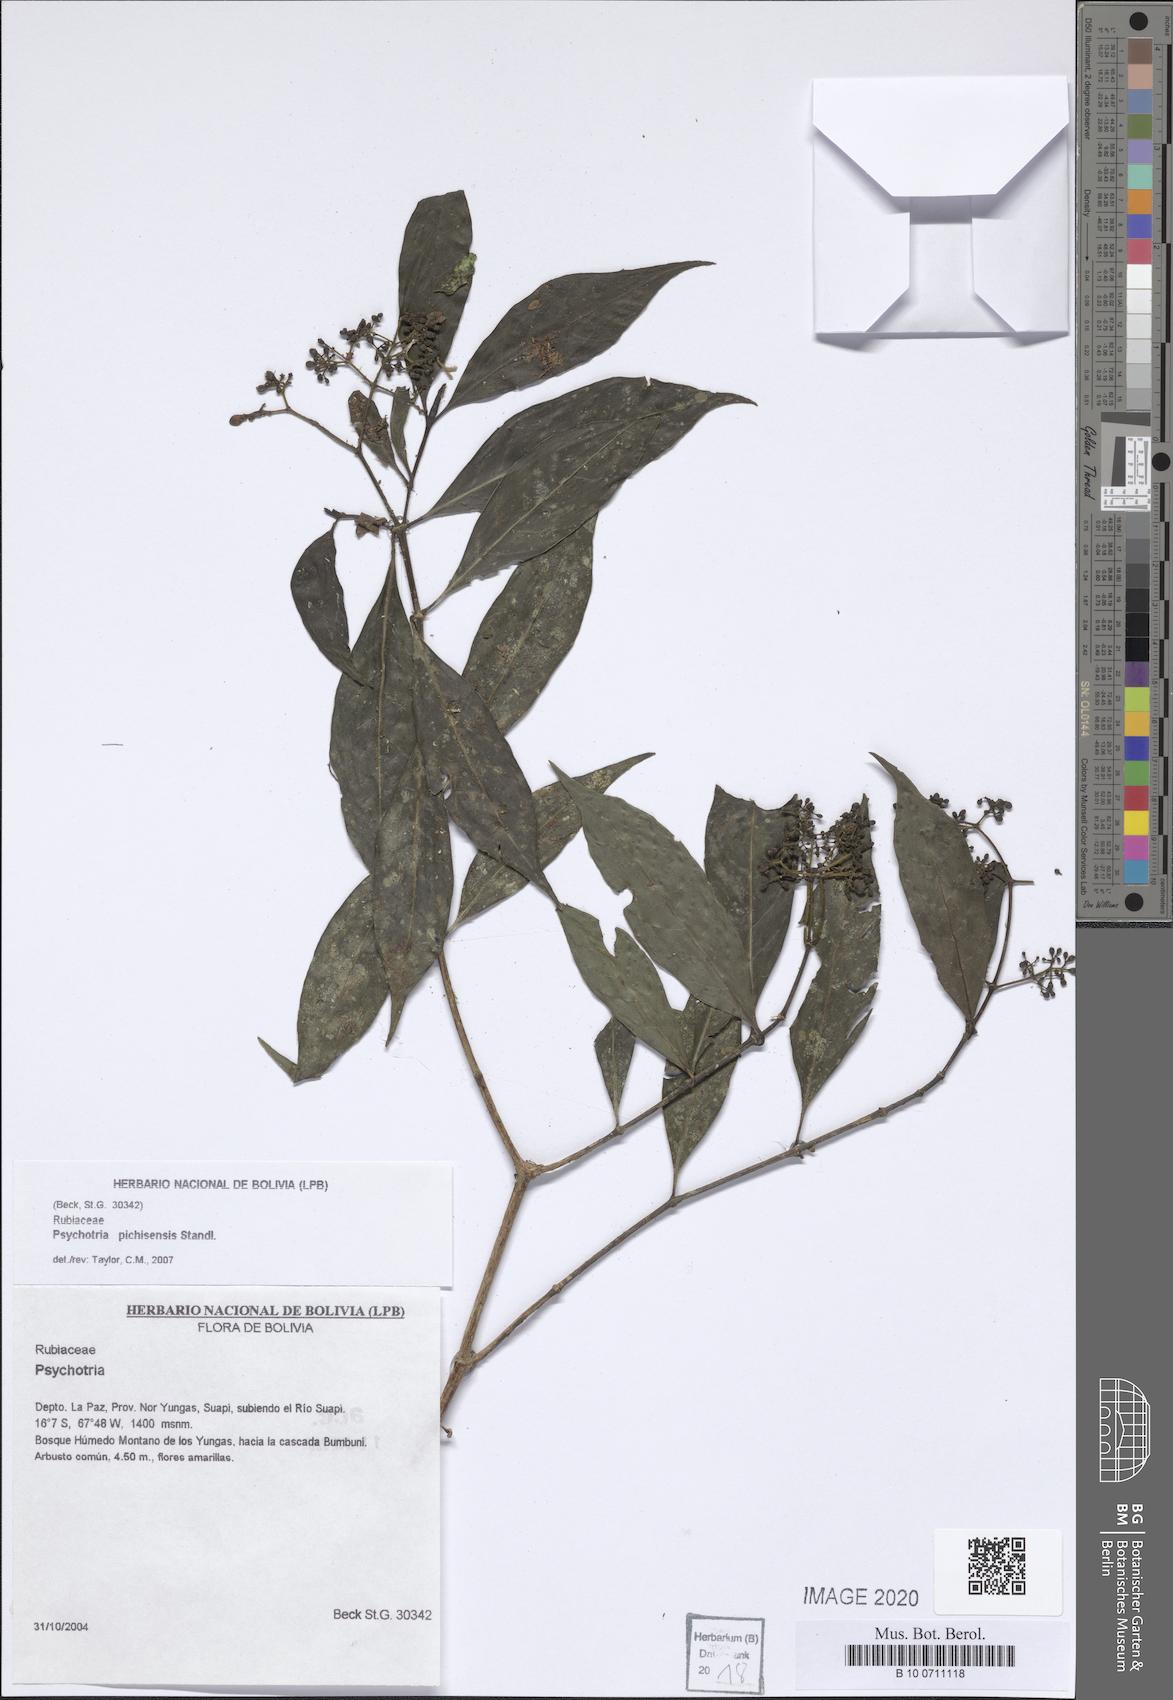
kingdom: Plantae
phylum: Tracheophyta
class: Magnoliopsida
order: Gentianales
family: Rubiaceae
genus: Psychotria
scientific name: Psychotria pichisensis
